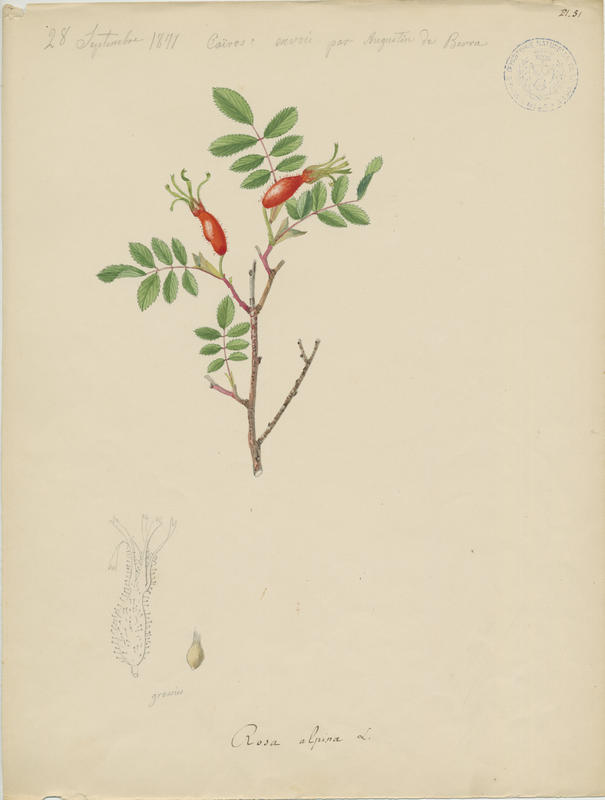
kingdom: Plantae
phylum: Tracheophyta
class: Magnoliopsida
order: Rosales
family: Rosaceae
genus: Rosa
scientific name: Rosa pendulina
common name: Alpine rose
